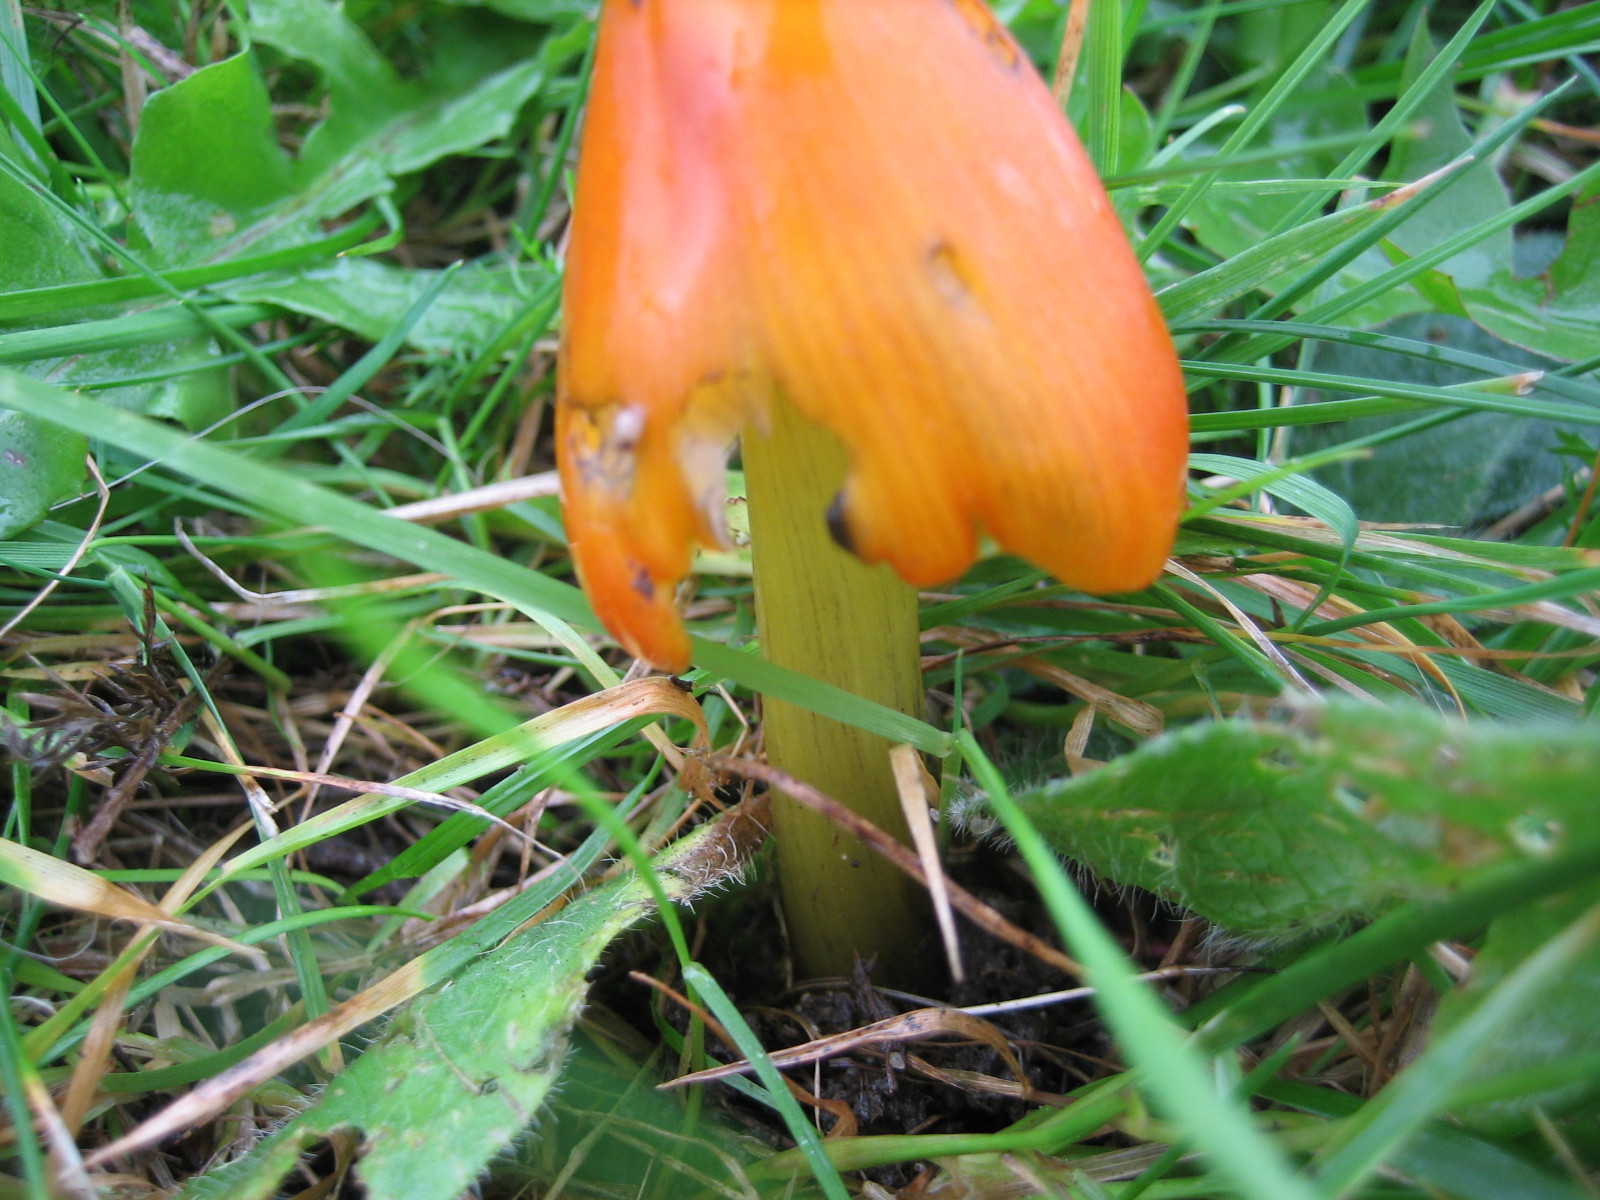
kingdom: Fungi
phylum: Basidiomycota
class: Agaricomycetes
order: Agaricales
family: Hygrophoraceae
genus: Hygrocybe
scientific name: Hygrocybe conica
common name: kegle-vokshat
